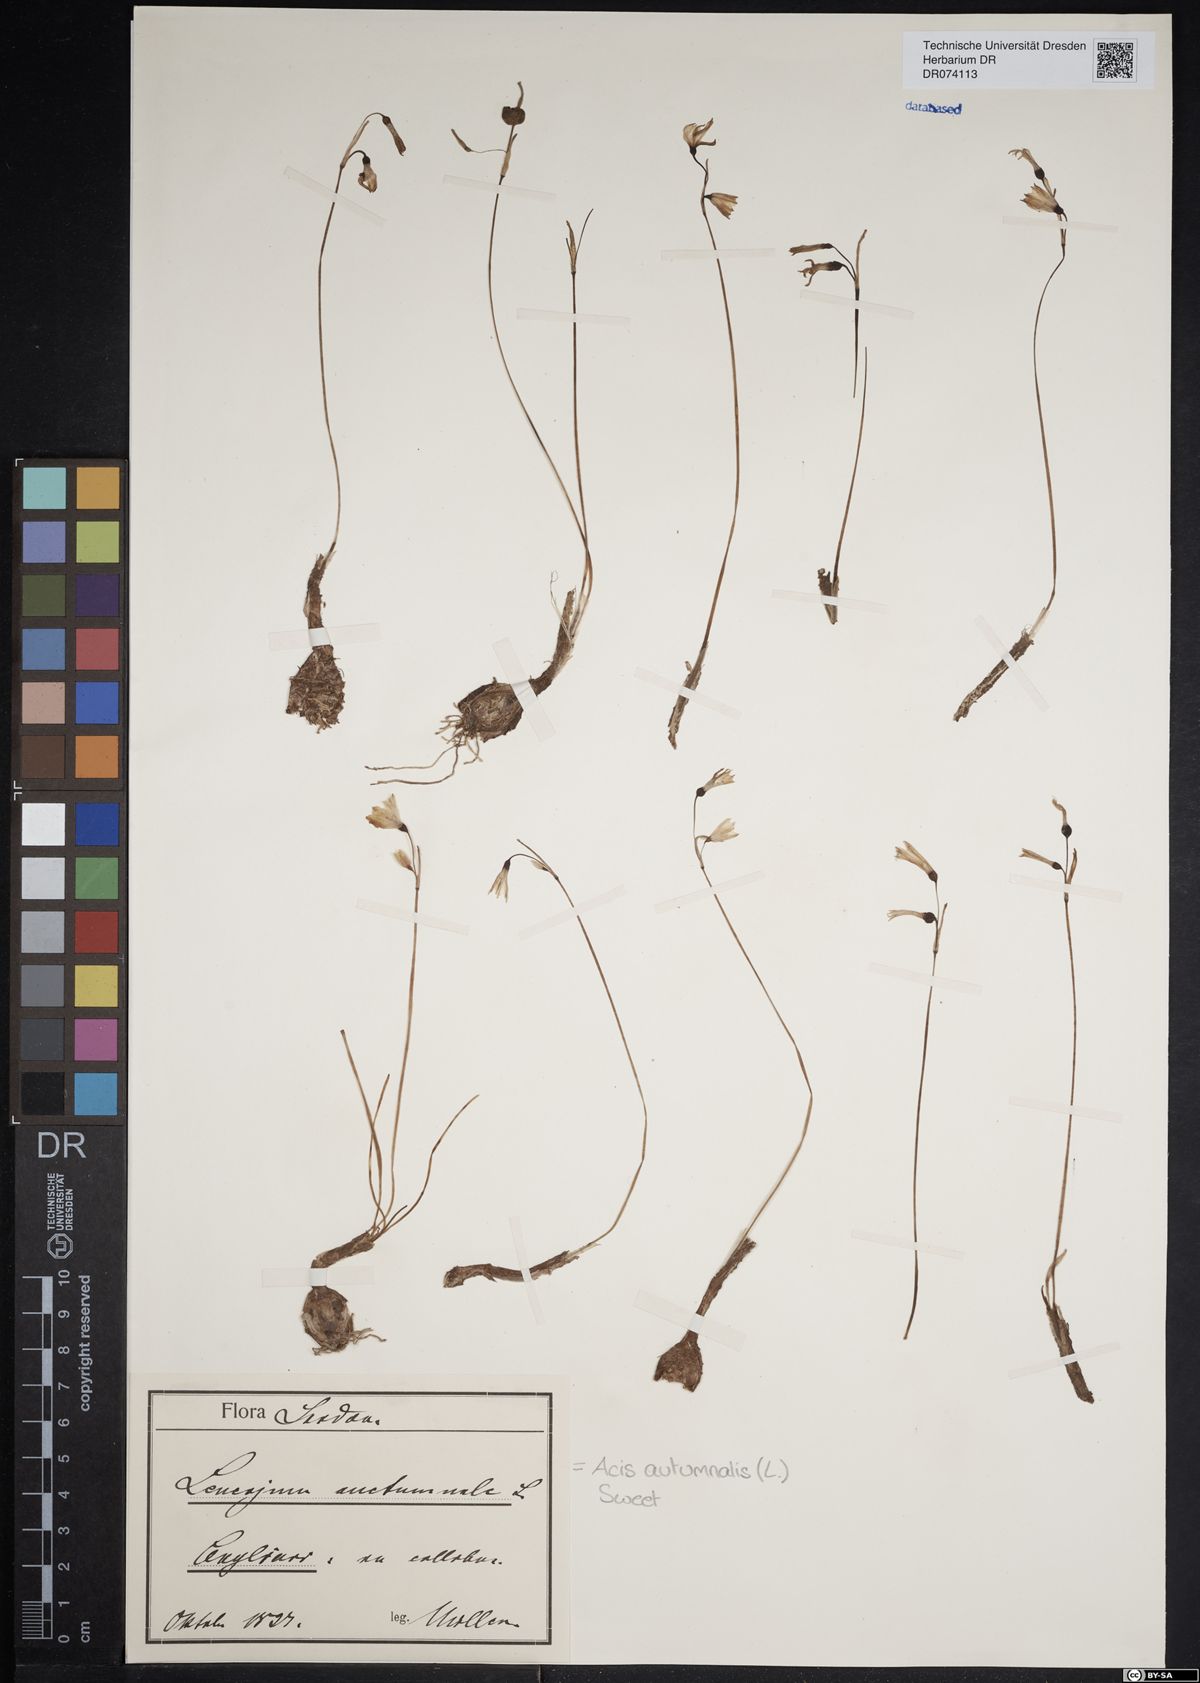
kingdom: Plantae
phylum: Tracheophyta
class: Liliopsida
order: Asparagales
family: Amaryllidaceae
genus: Acis
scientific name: Acis autumnalis
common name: Autumn snowflake
